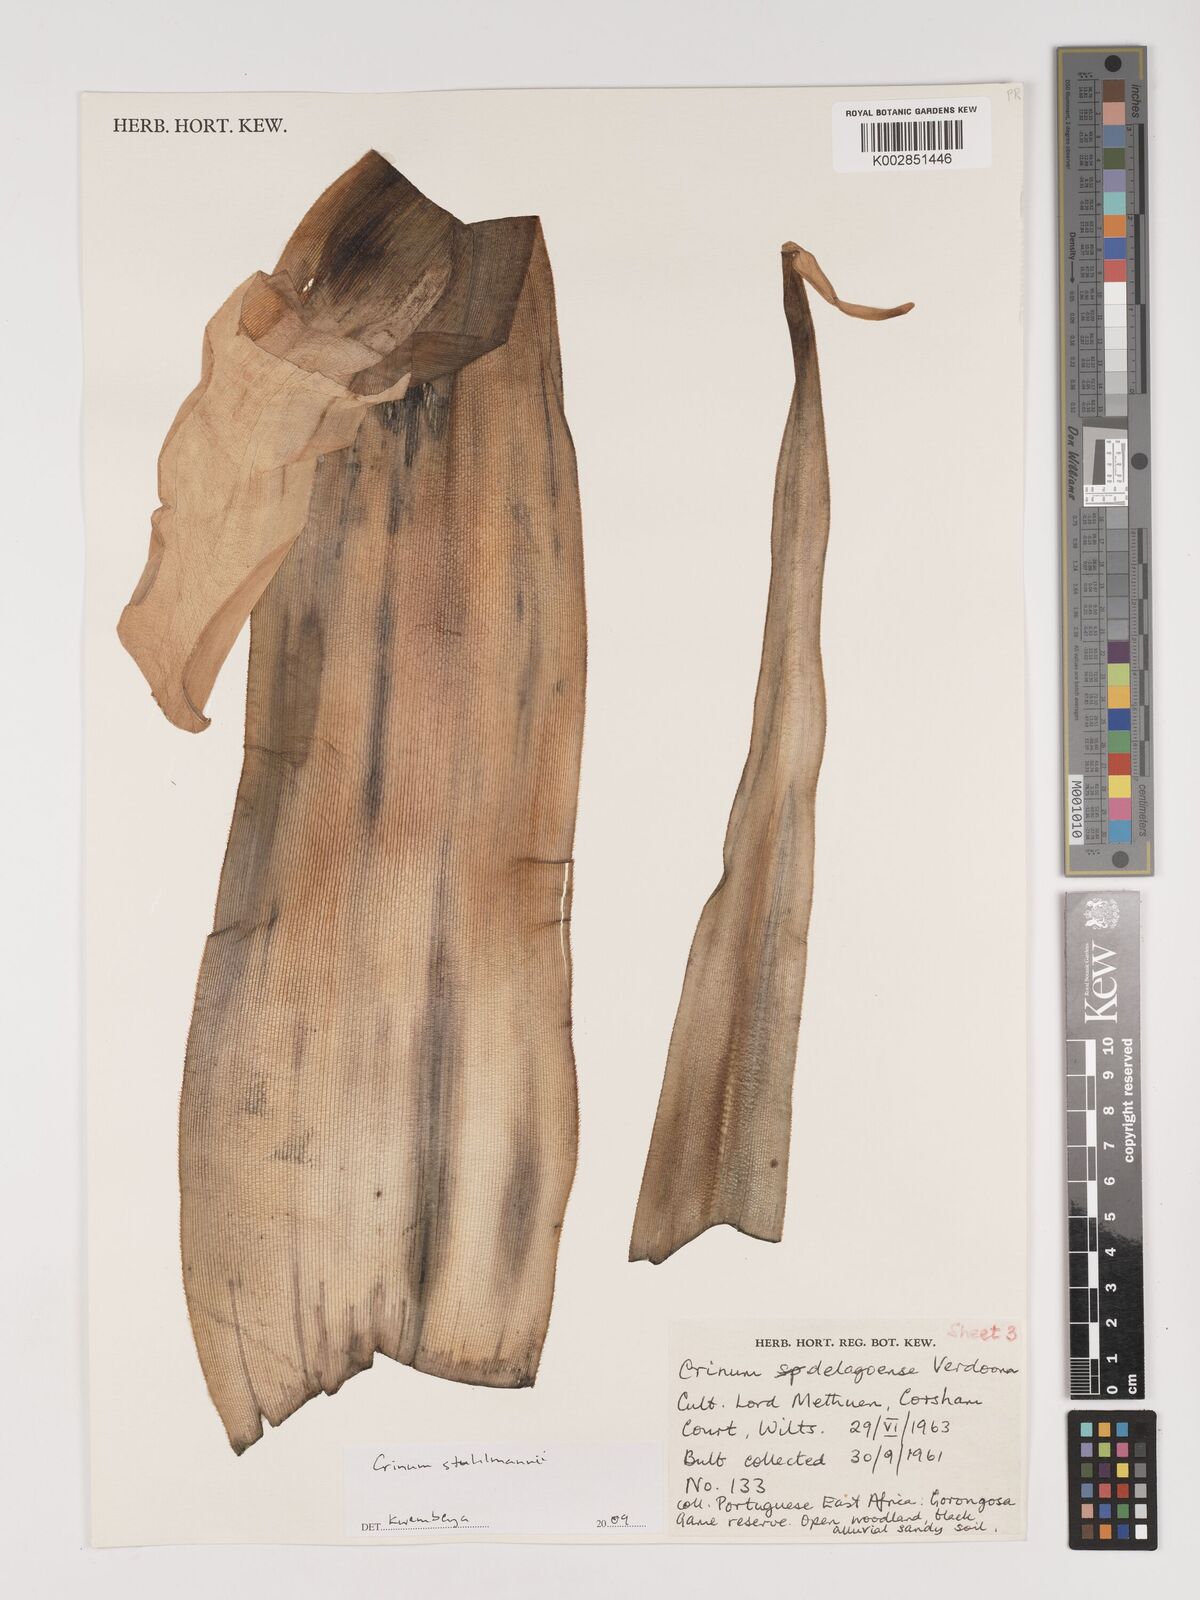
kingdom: Plantae
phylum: Tracheophyta
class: Liliopsida
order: Asparagales
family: Amaryllidaceae
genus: Crinum
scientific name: Crinum stuhlmannii
